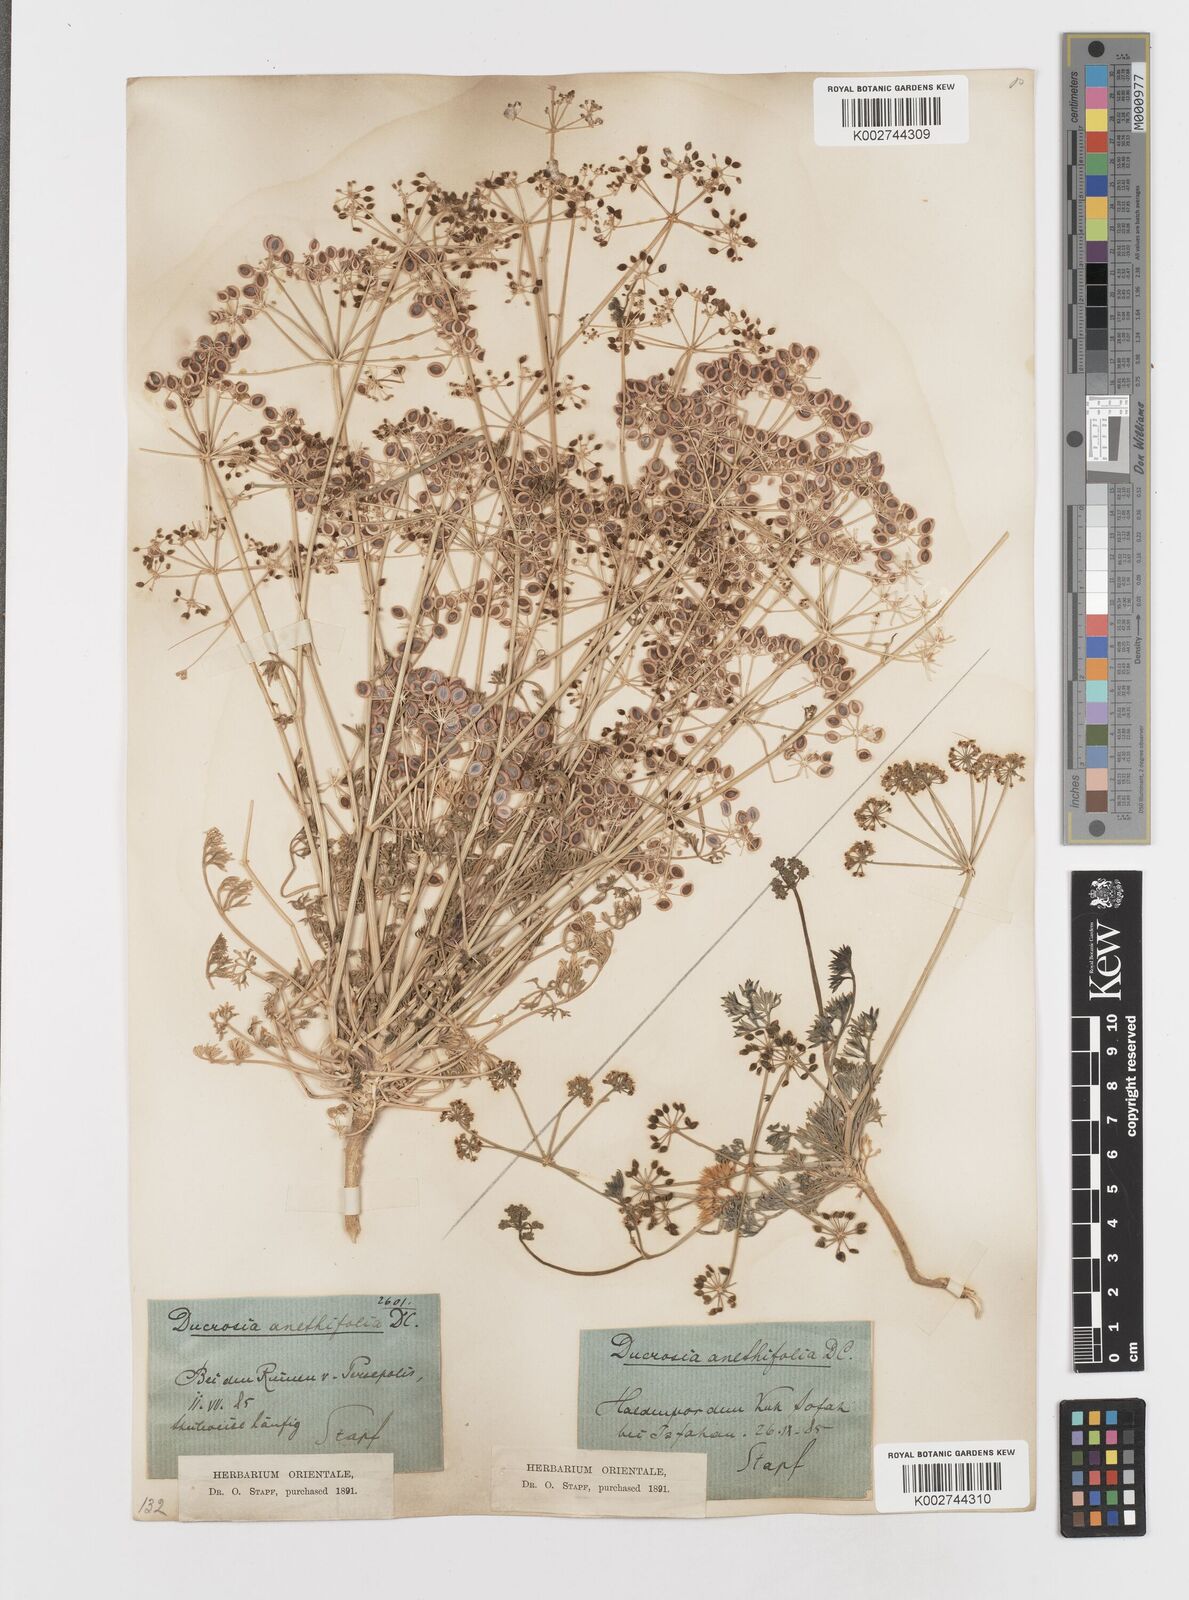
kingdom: Plantae
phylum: Tracheophyta
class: Magnoliopsida
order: Apiales
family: Apiaceae
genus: Ducrosia
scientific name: Ducrosia anethifolia
